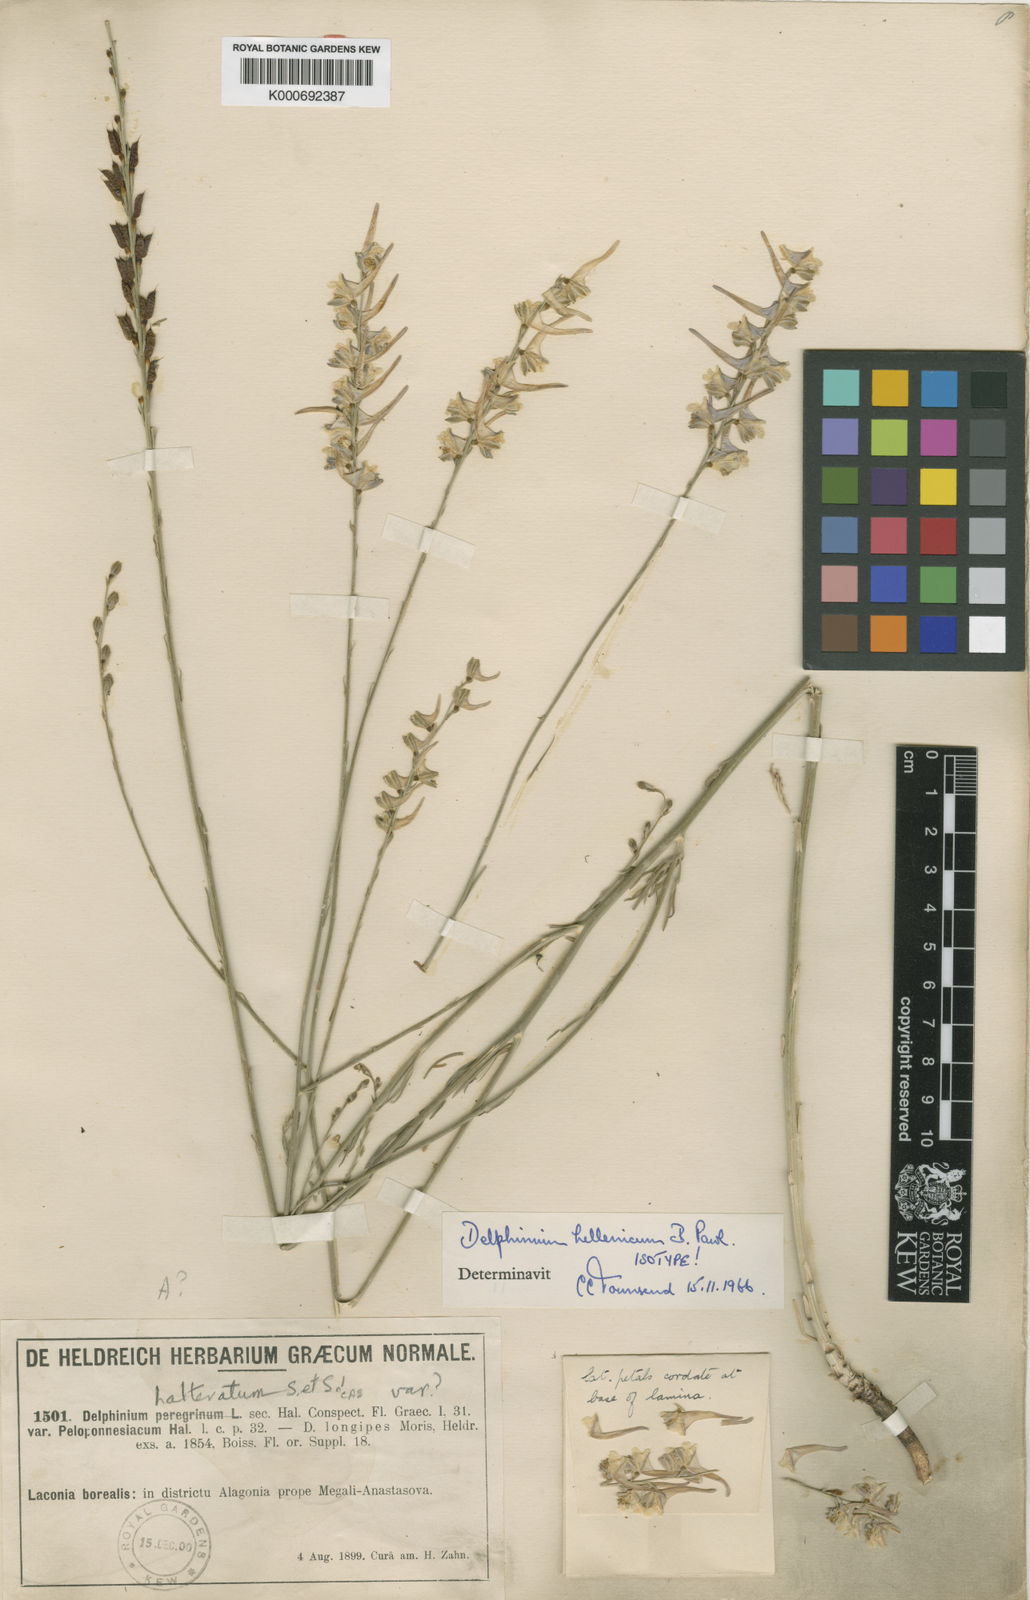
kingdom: Plantae
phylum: Tracheophyta
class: Magnoliopsida
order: Ranunculales
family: Ranunculaceae
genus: Delphinium
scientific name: Delphinium hellenicum
